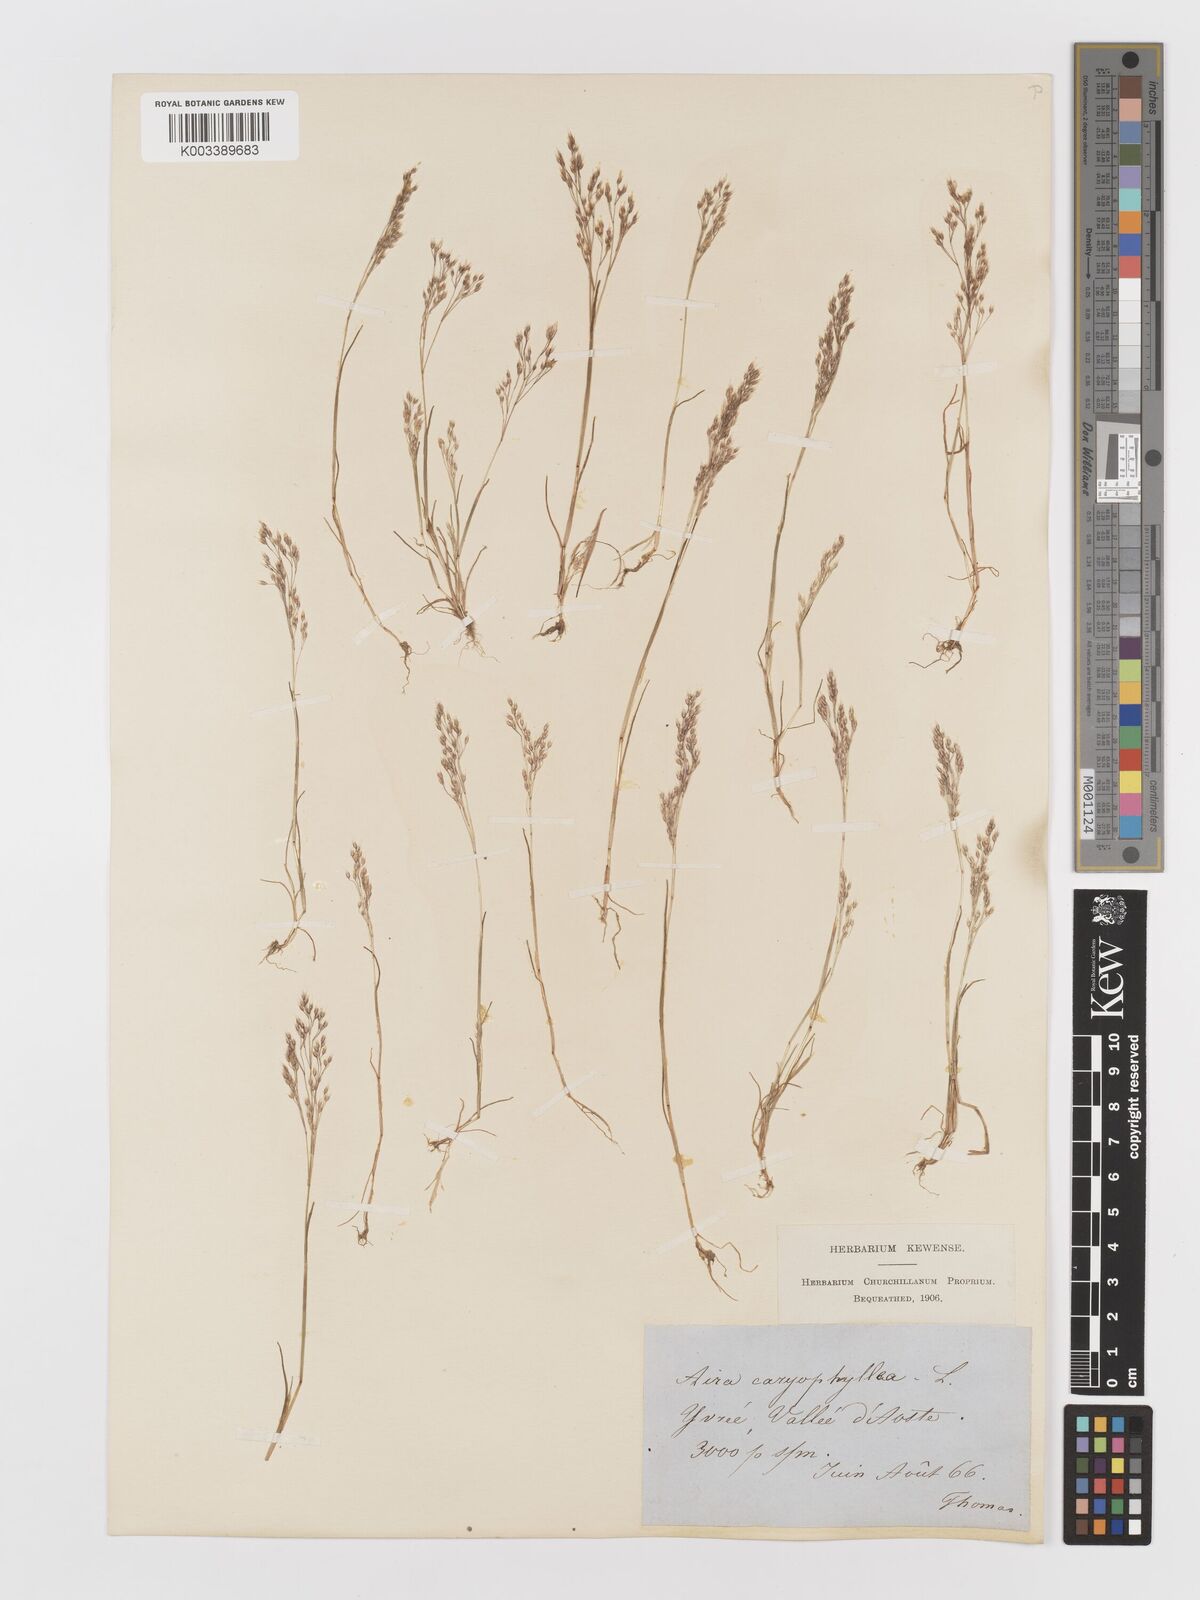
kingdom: Plantae
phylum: Tracheophyta
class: Liliopsida
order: Poales
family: Poaceae
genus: Aira
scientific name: Aira caryophyllea
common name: Silver hairgrass
